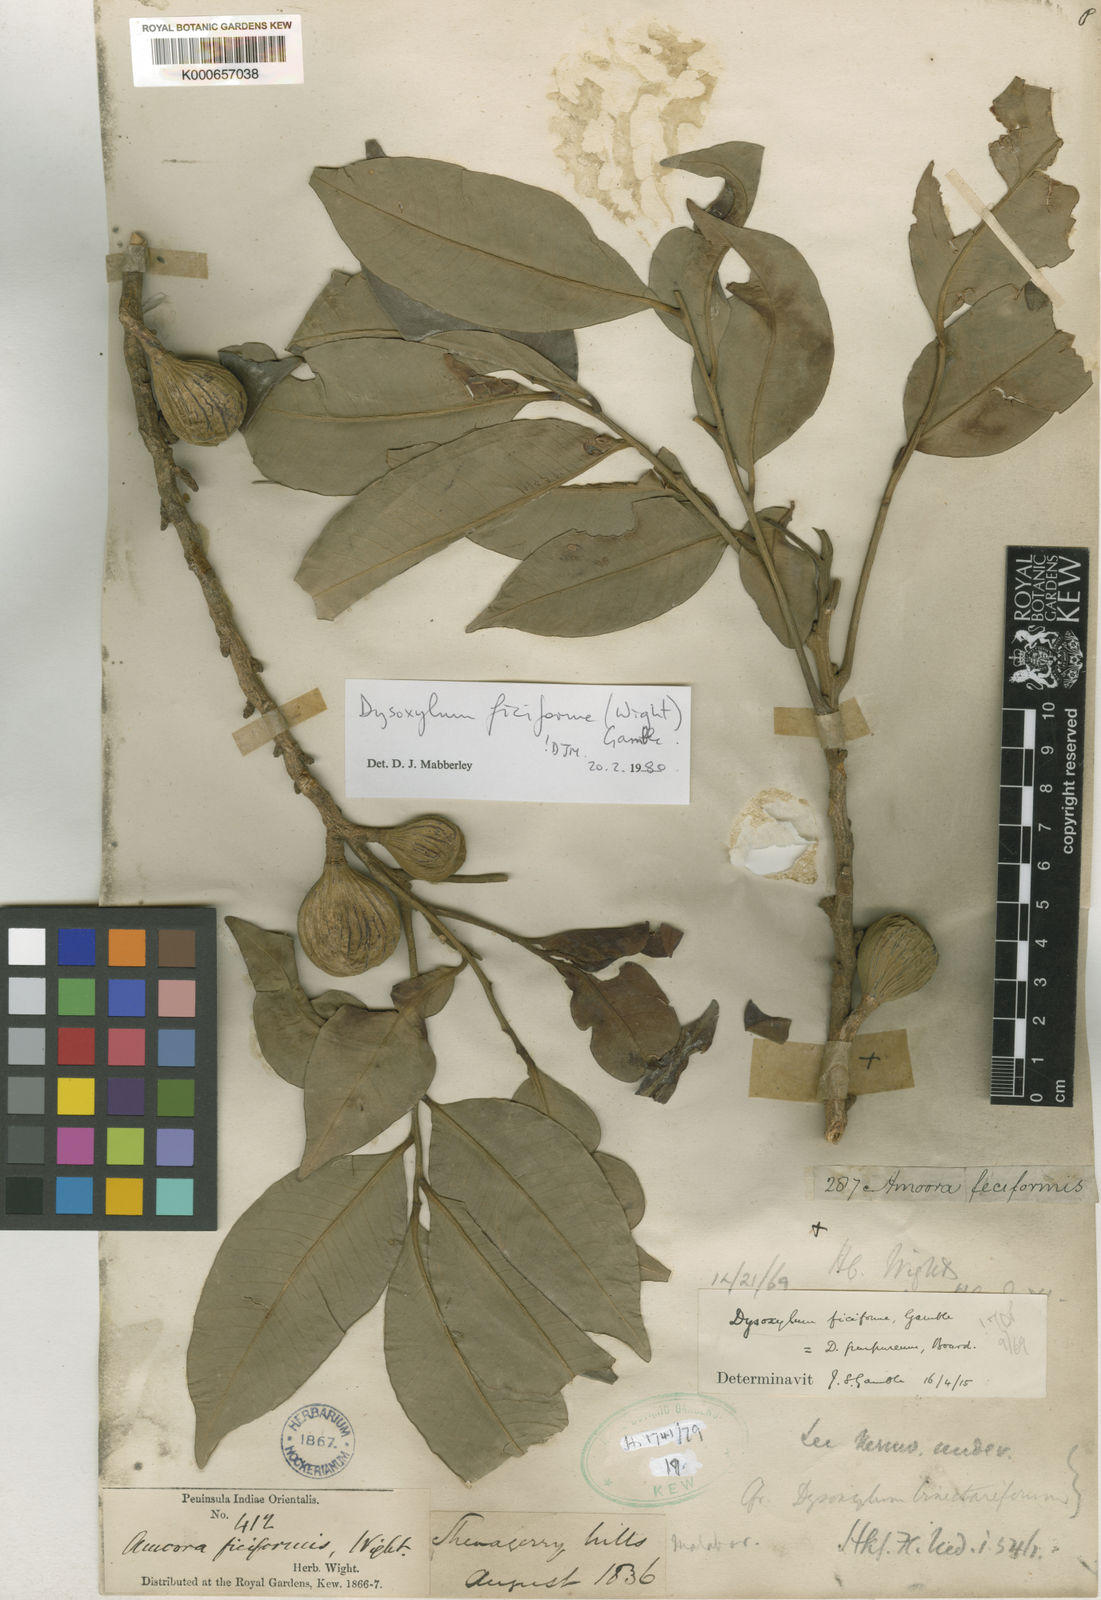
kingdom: Plantae
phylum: Tracheophyta
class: Magnoliopsida
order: Sapindales
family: Meliaceae
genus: Dysoxylum
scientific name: Dysoxylum ficiforme
